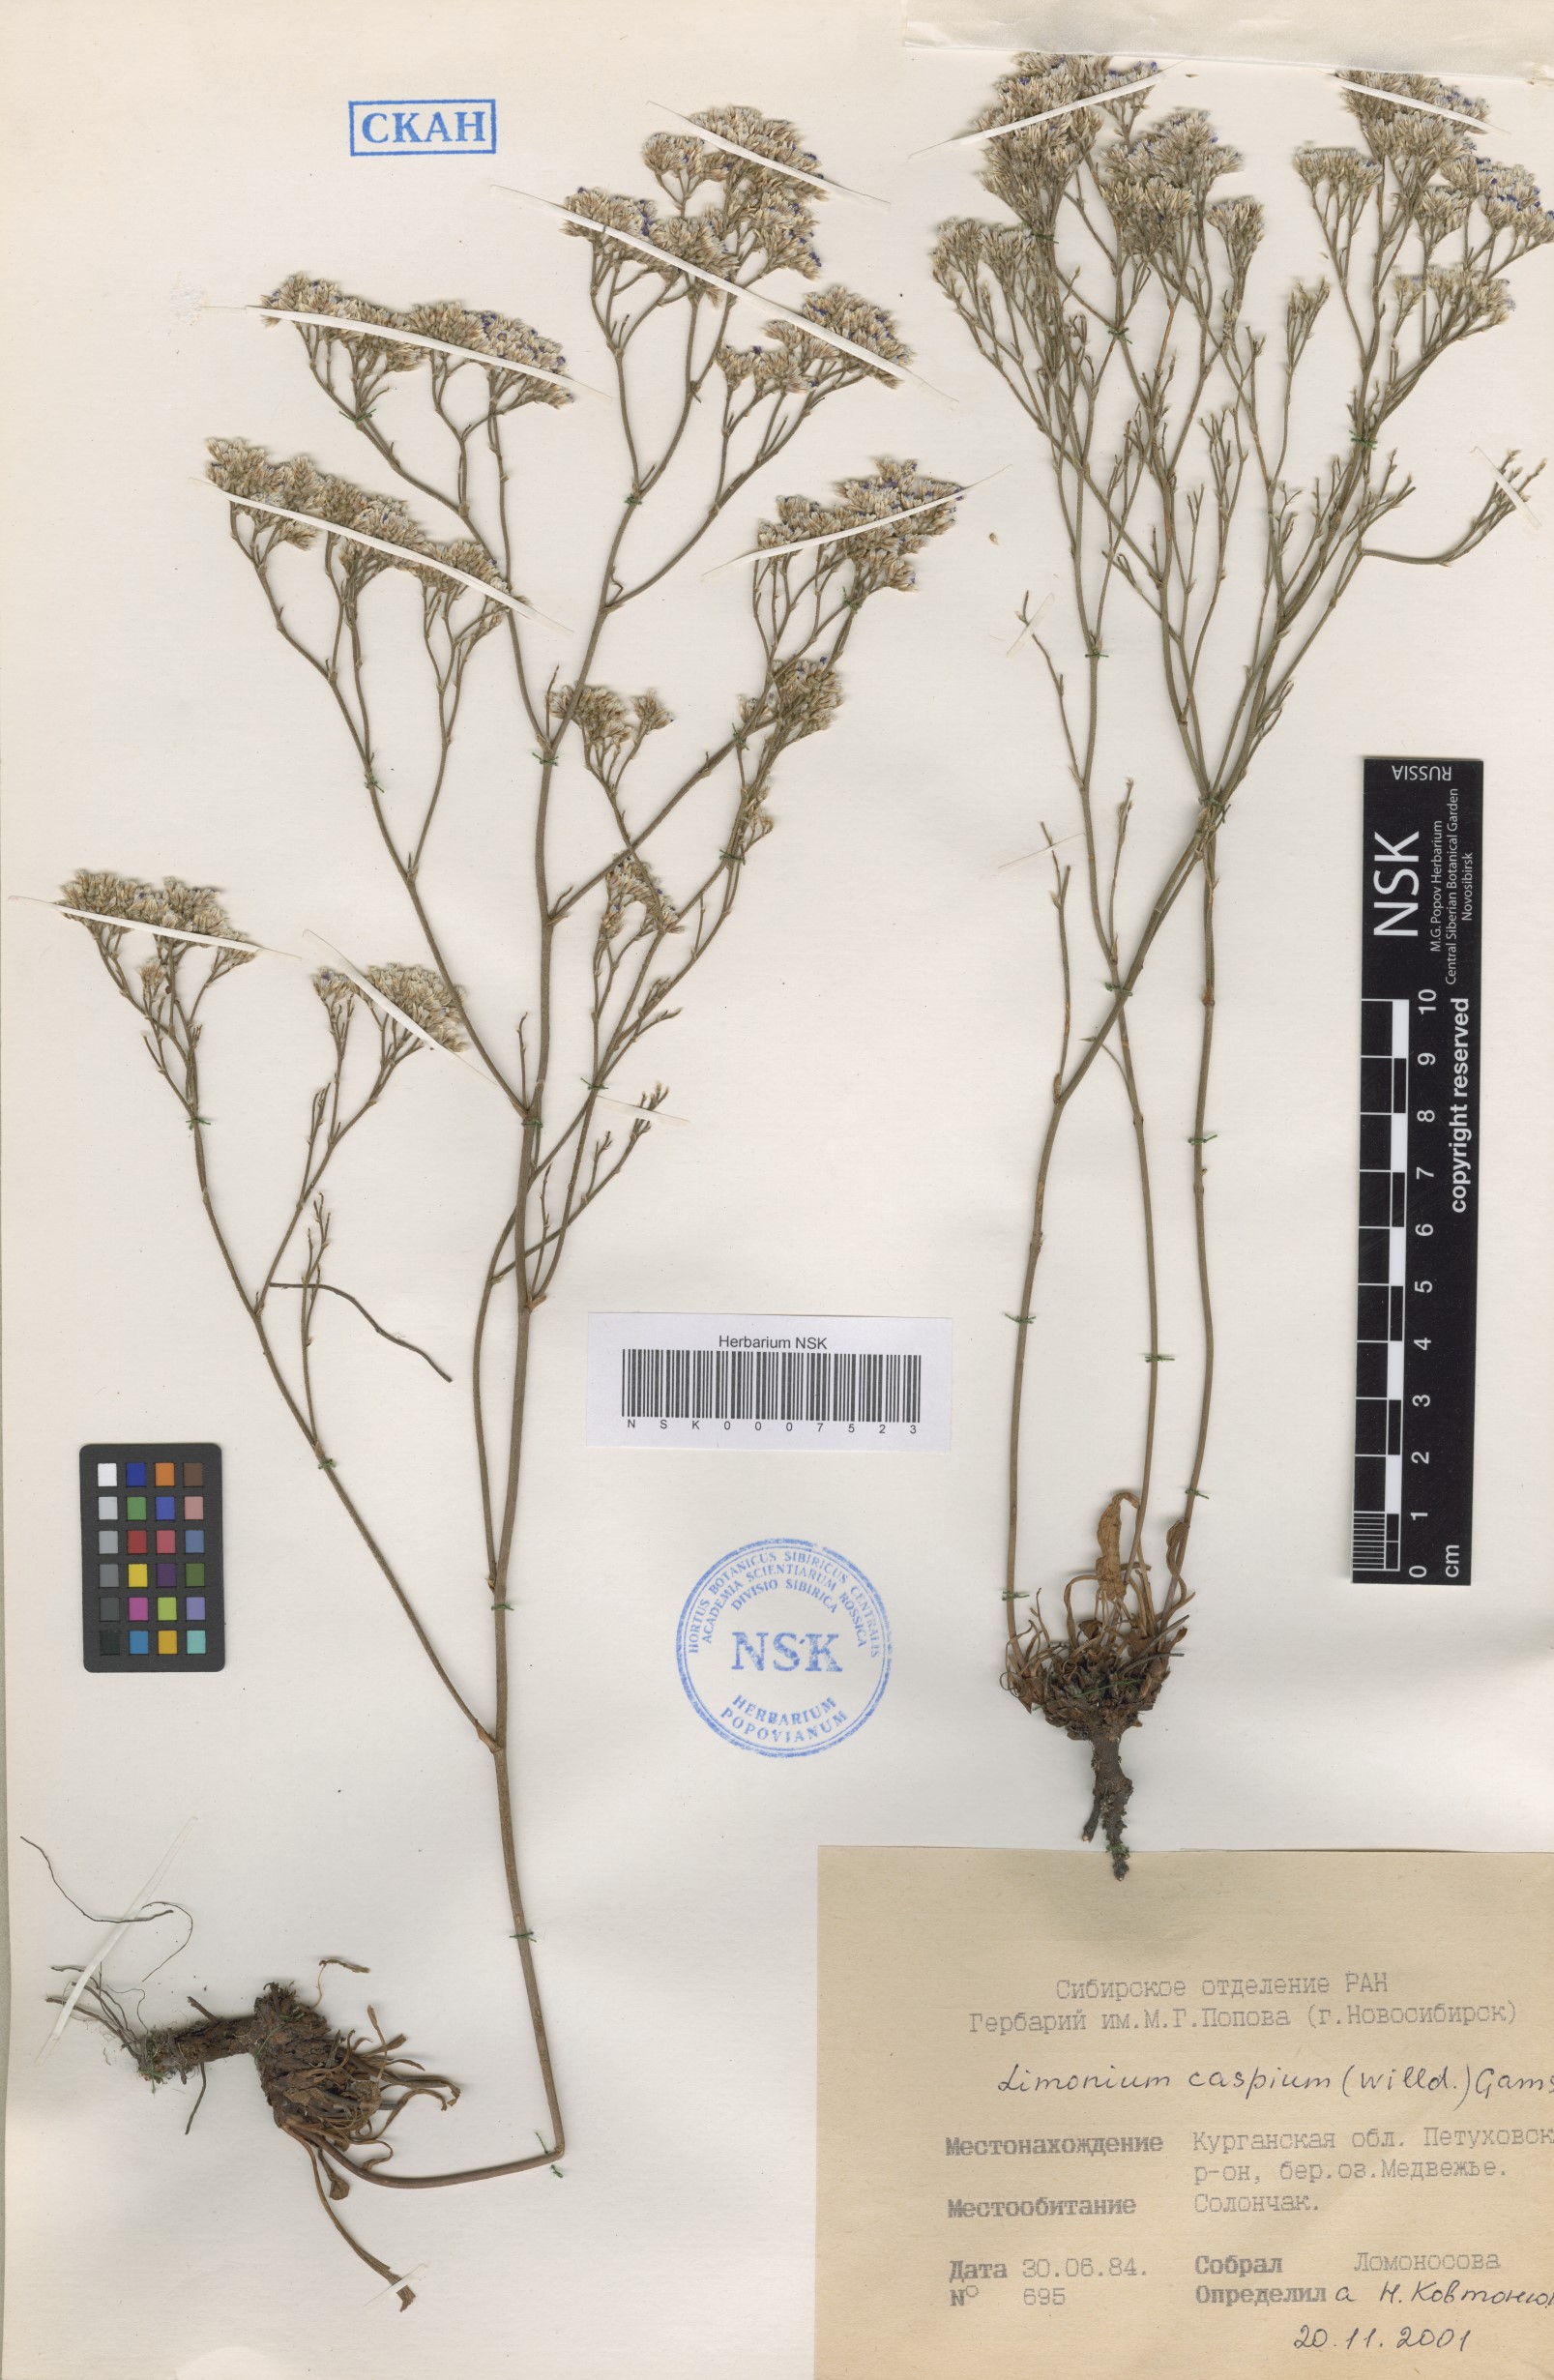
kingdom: Plantae
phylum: Tracheophyta
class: Magnoliopsida
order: Caryophyllales
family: Plumbaginaceae
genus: Limonium
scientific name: Limonium bellidifolium
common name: Matted sea-lavender
